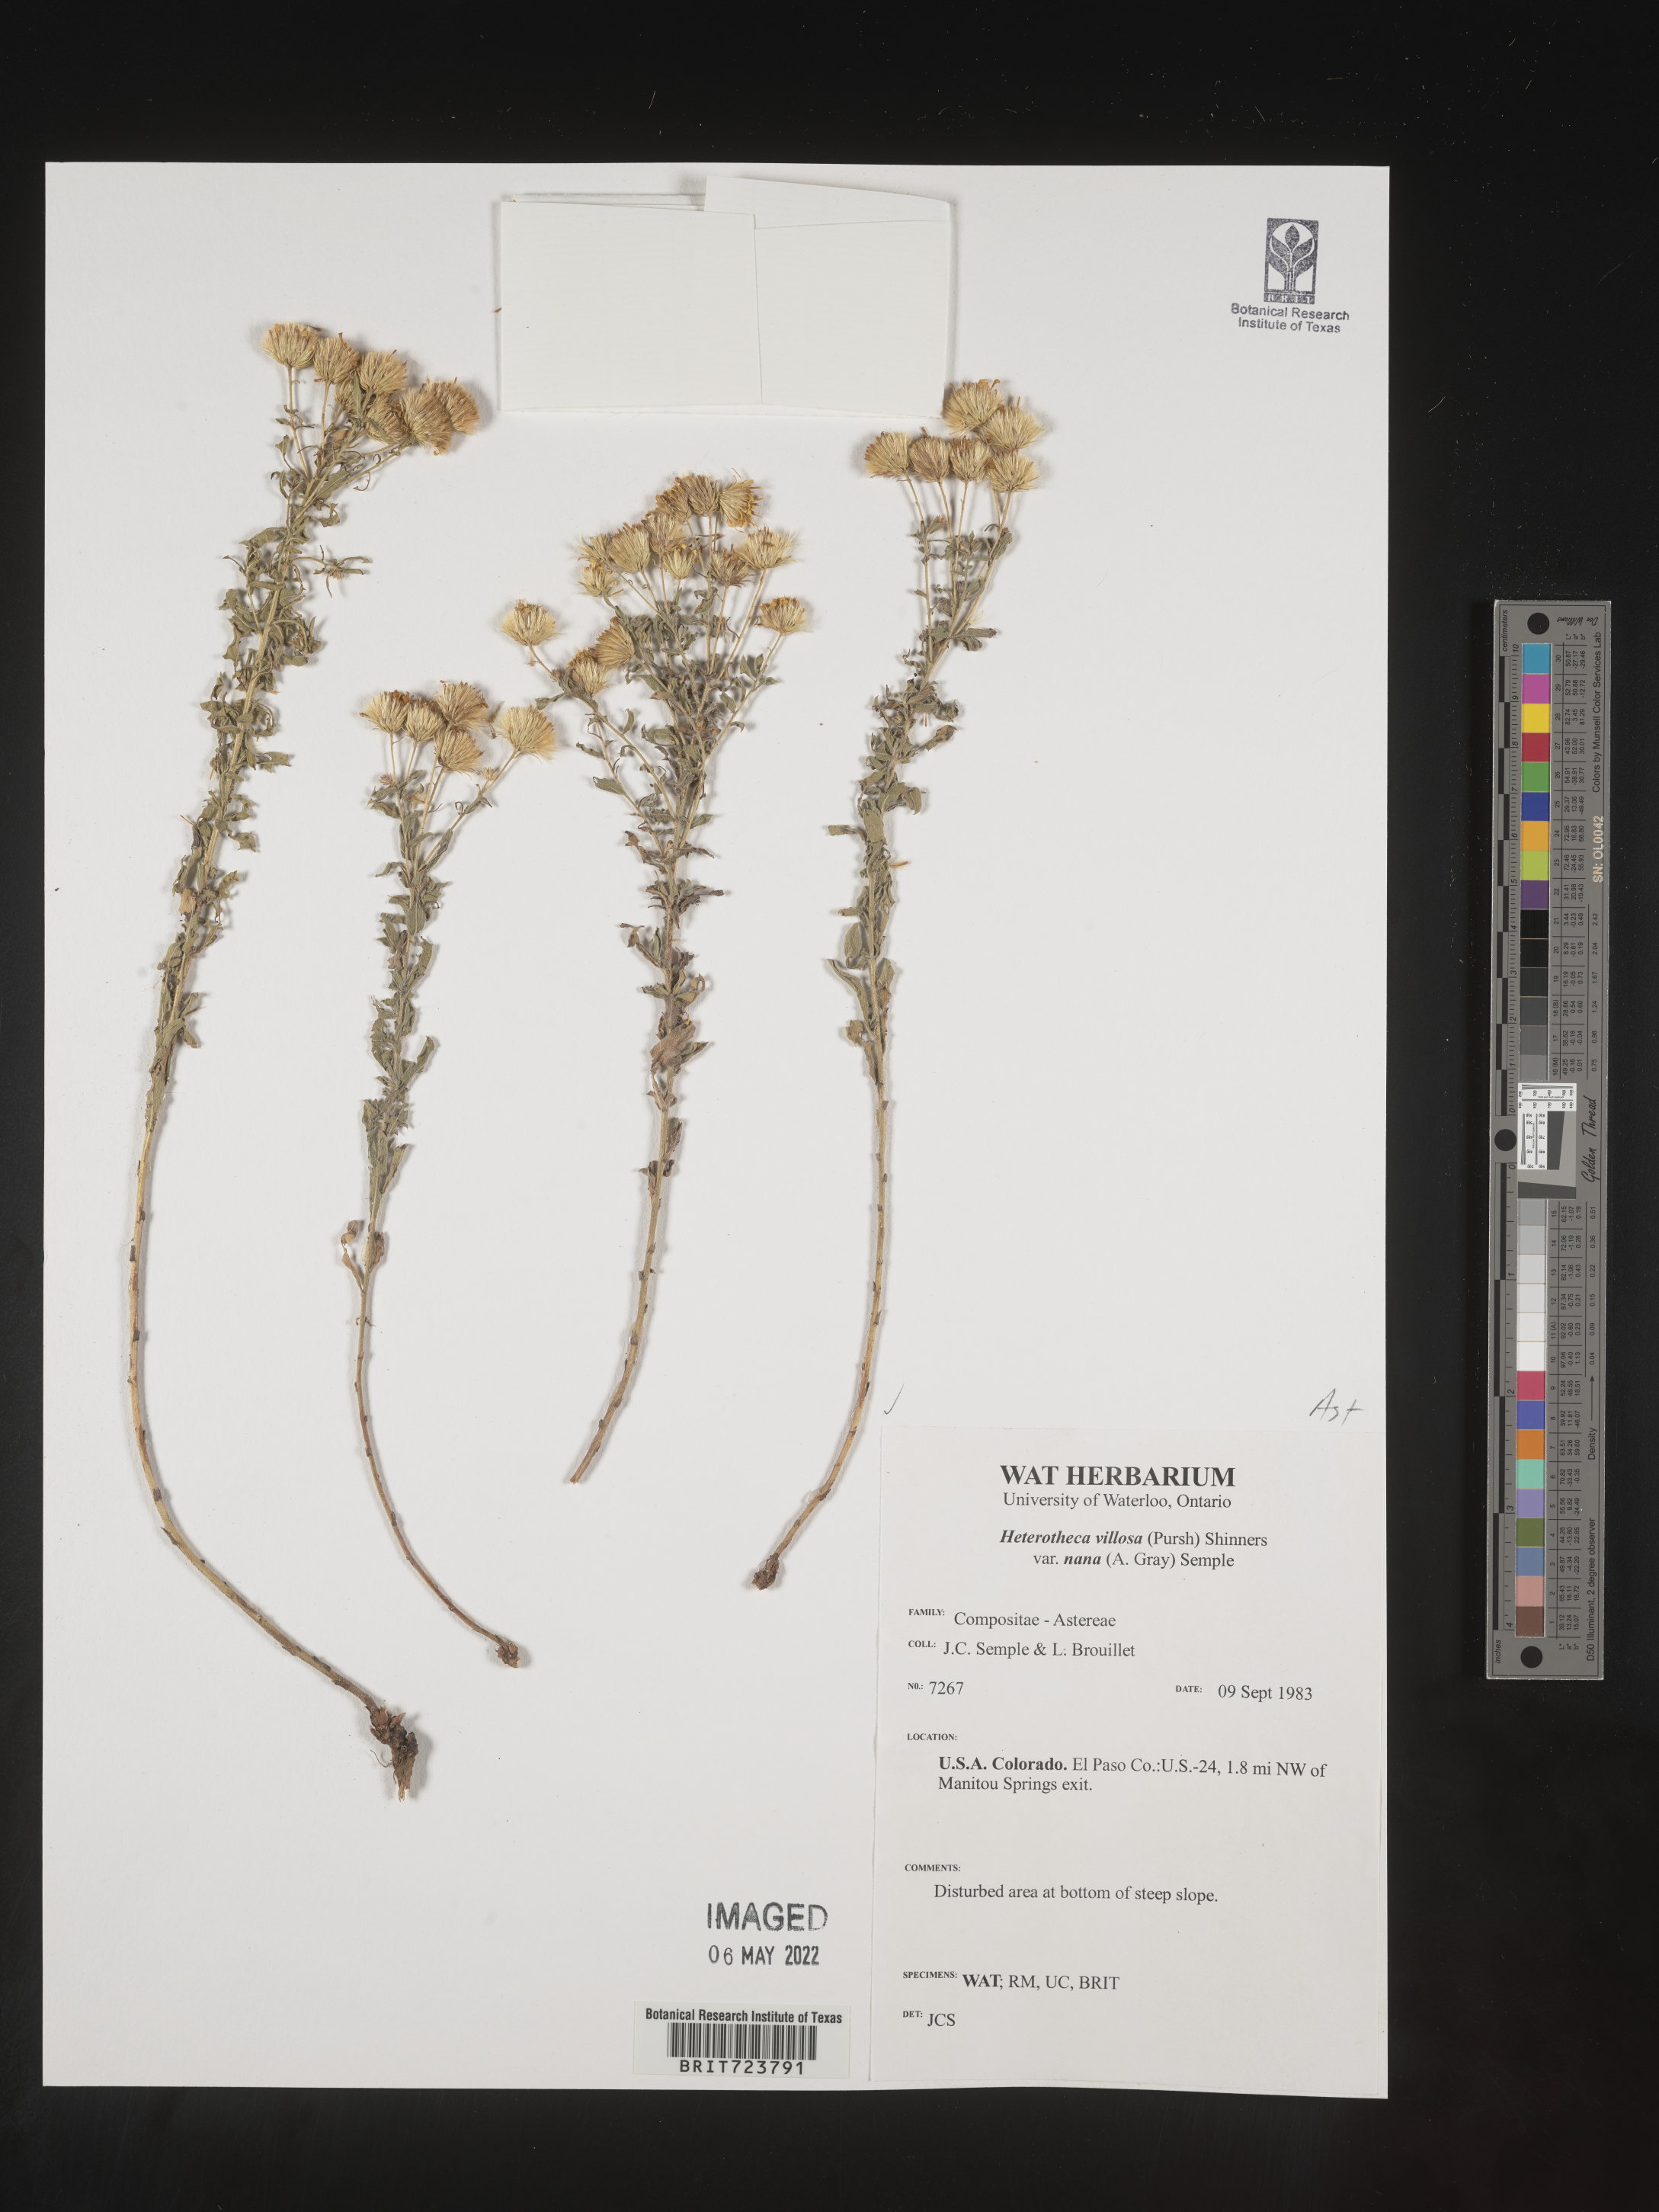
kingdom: Plantae
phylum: Tracheophyta
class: Magnoliopsida
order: Asterales
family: Asteraceae
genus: Heterotheca
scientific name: Heterotheca hirsutissima
